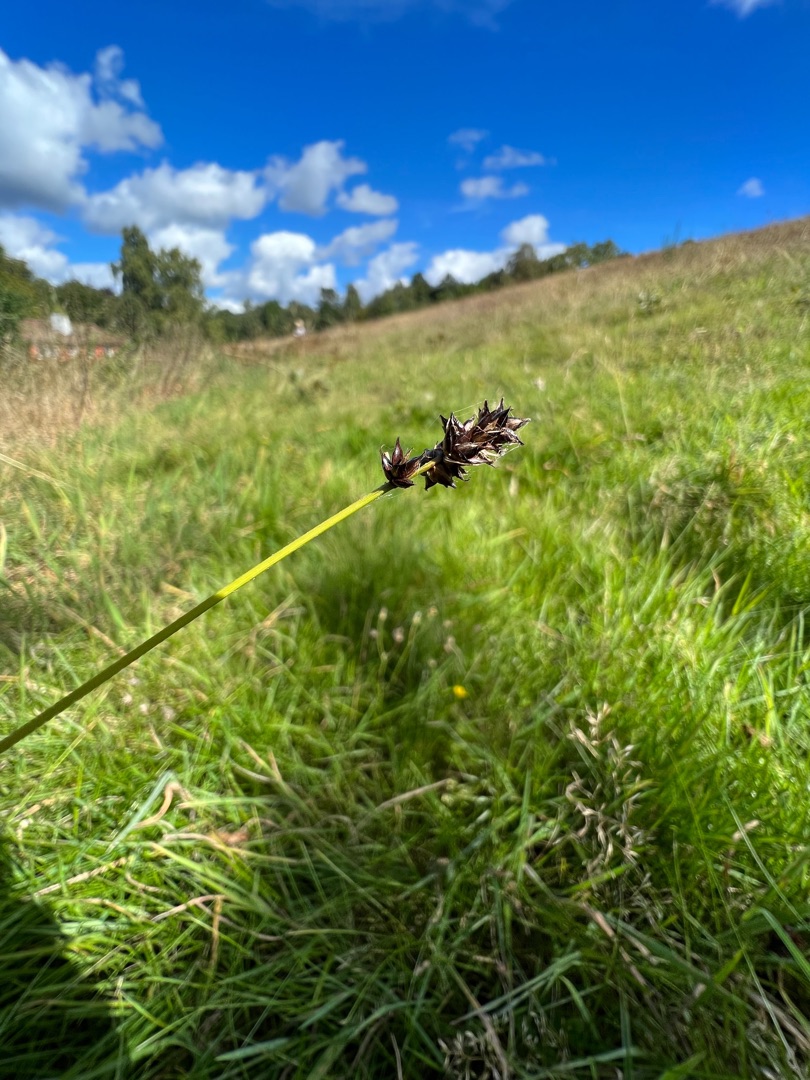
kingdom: Plantae
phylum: Tracheophyta
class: Liliopsida
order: Poales
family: Cyperaceae
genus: Carex
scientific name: Carex pairae
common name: Pigget star
